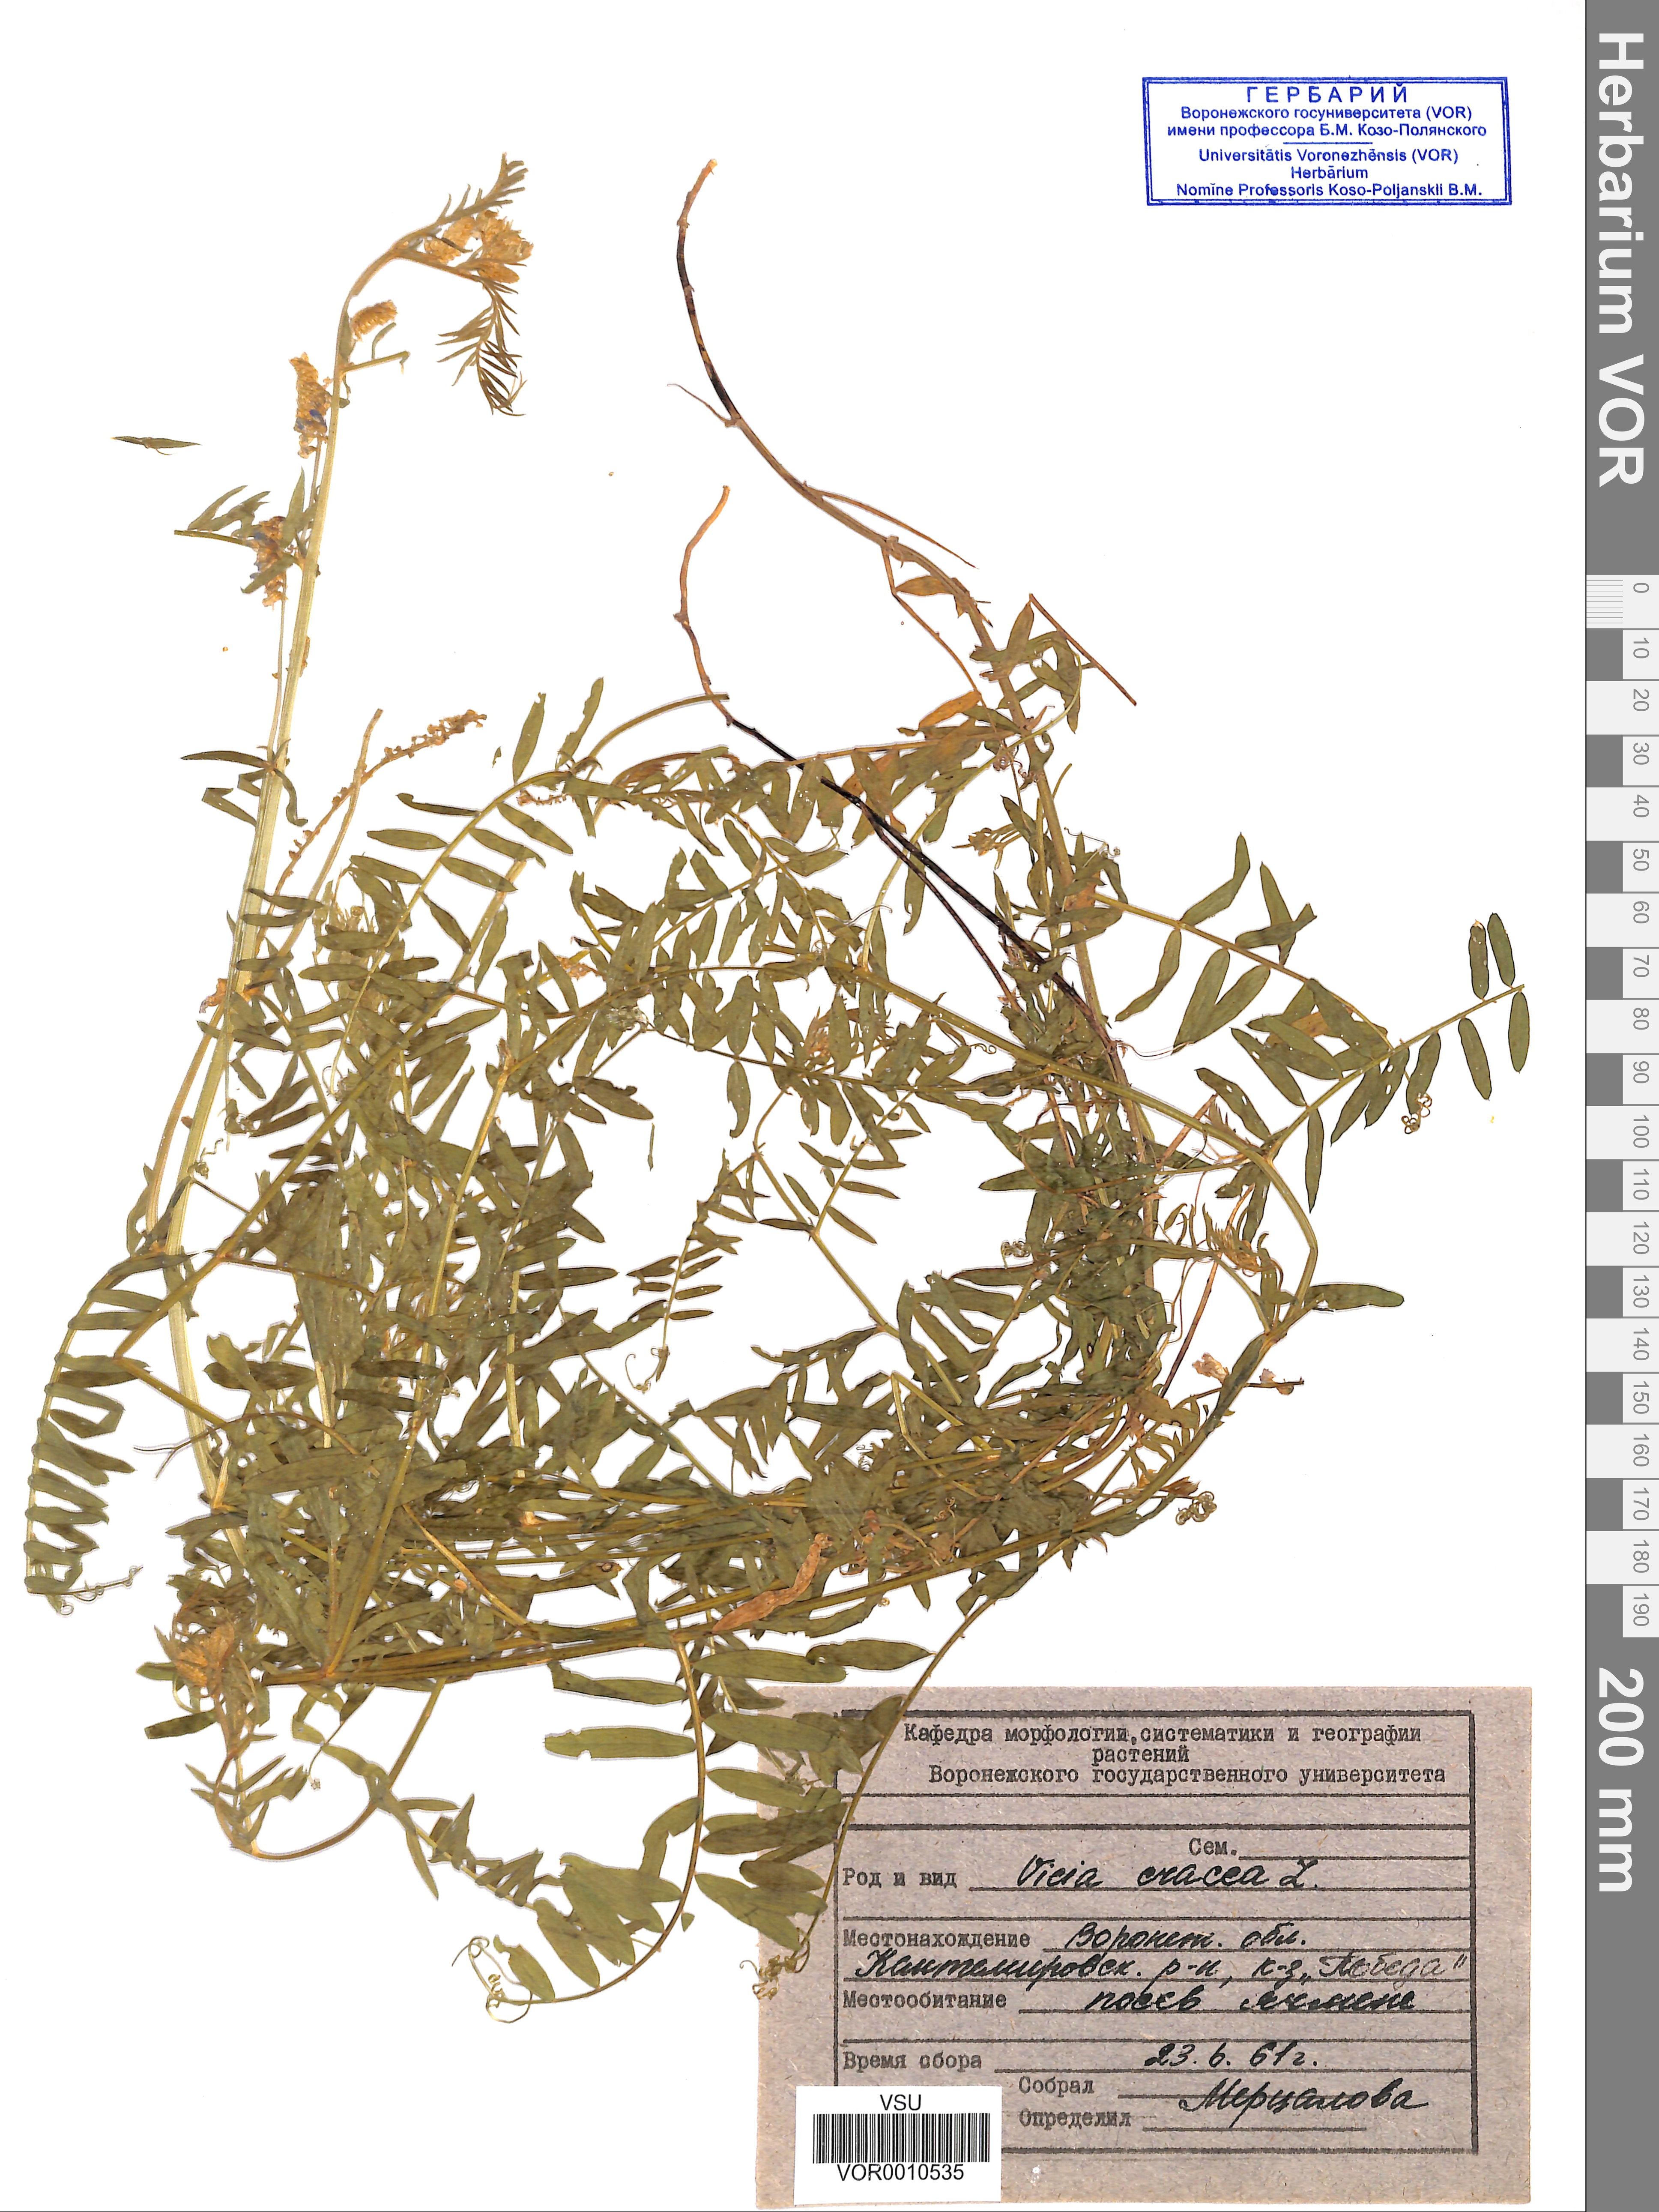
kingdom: Plantae
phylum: Tracheophyta
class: Magnoliopsida
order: Fabales
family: Fabaceae
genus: Vicia
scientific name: Vicia cracca
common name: Bird vetch
